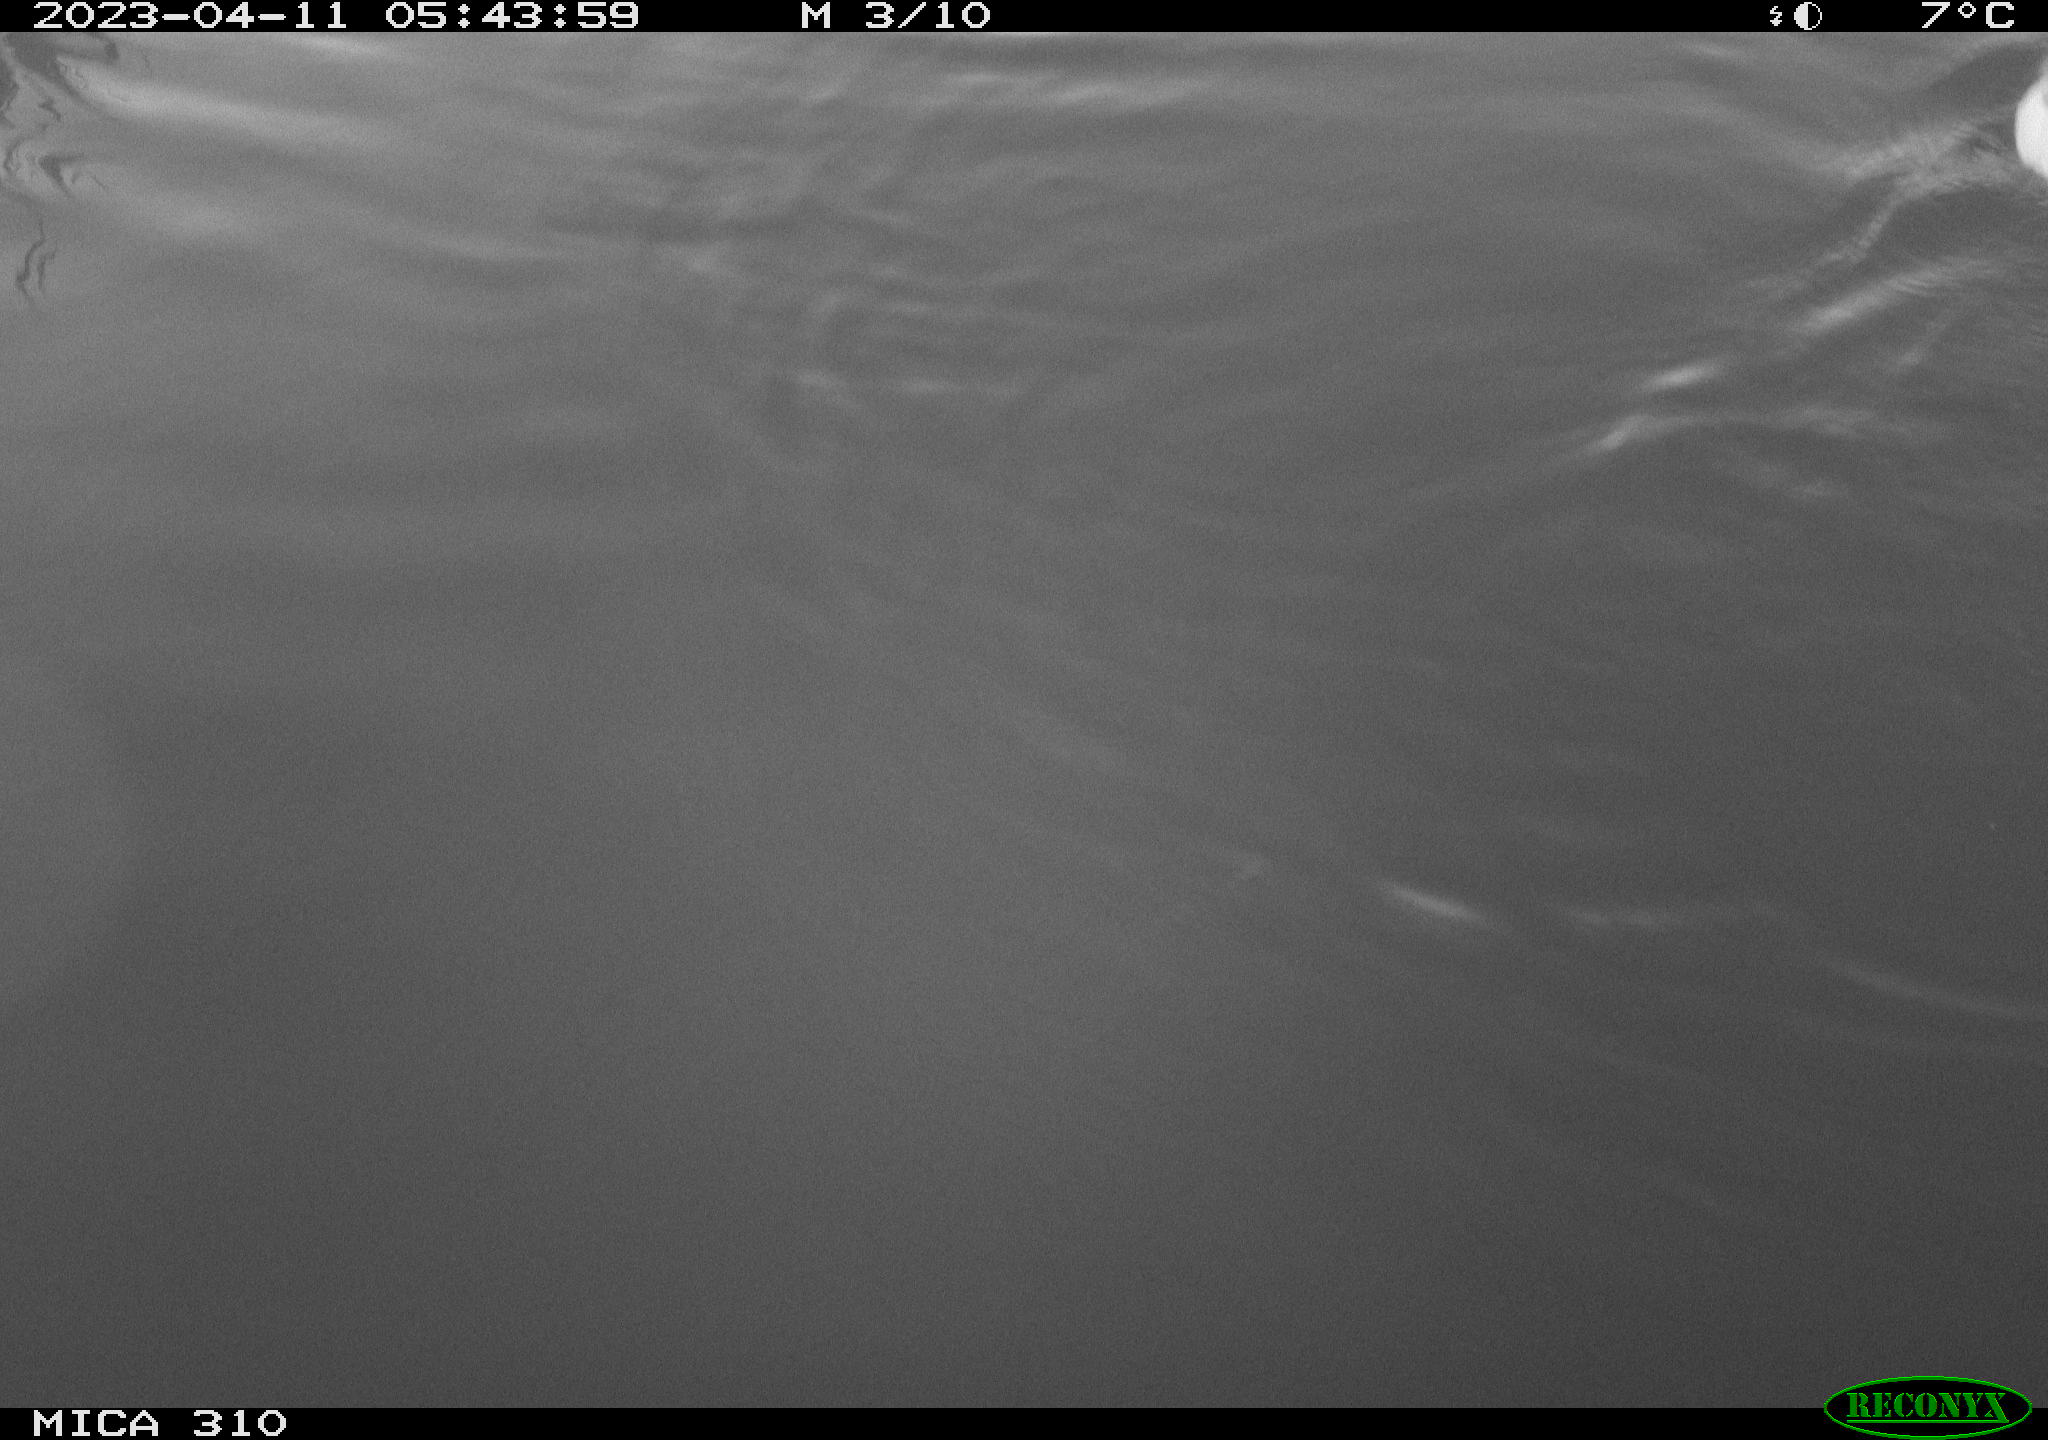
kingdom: Animalia
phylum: Chordata
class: Aves
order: Anseriformes
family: Anatidae
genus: Anas
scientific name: Anas
